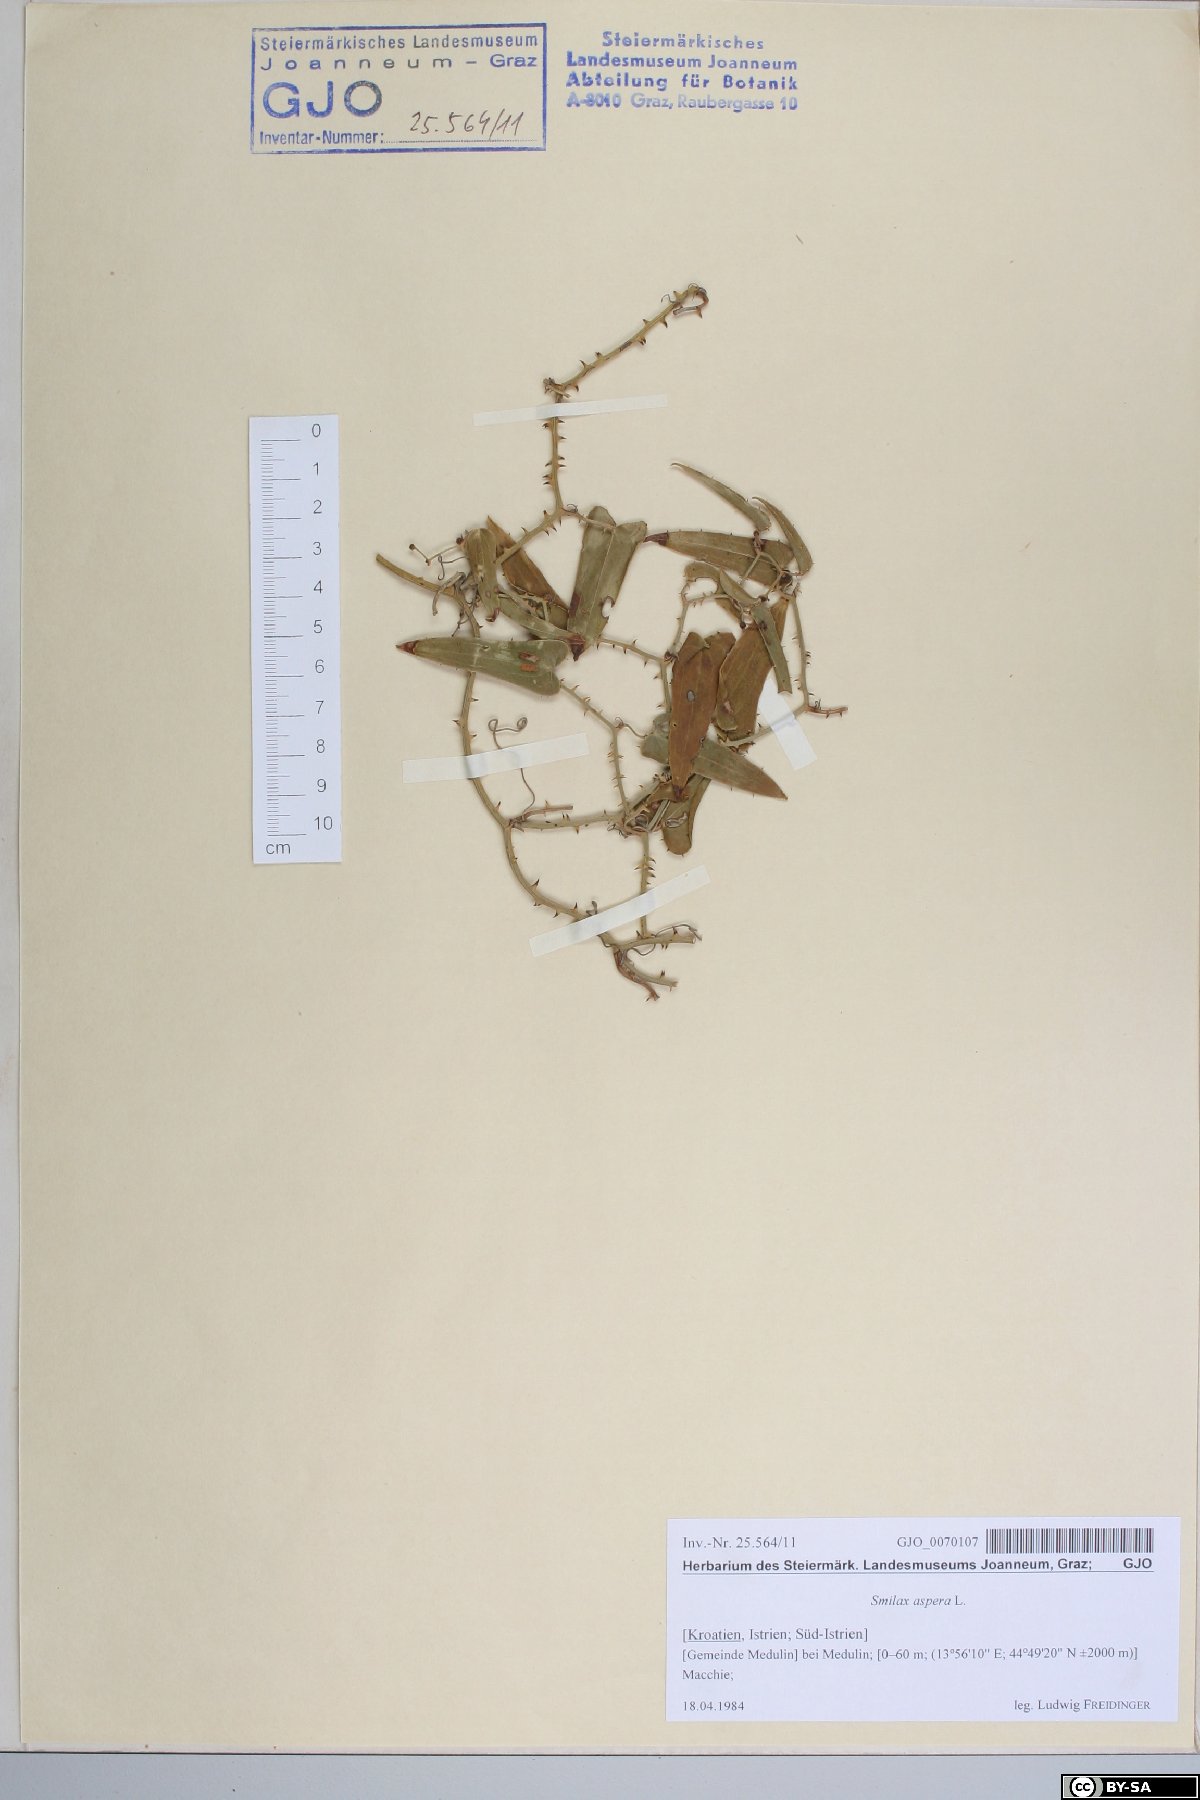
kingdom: Plantae
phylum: Tracheophyta
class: Liliopsida
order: Liliales
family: Smilacaceae
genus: Smilax
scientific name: Smilax aspera
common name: Common smilax
